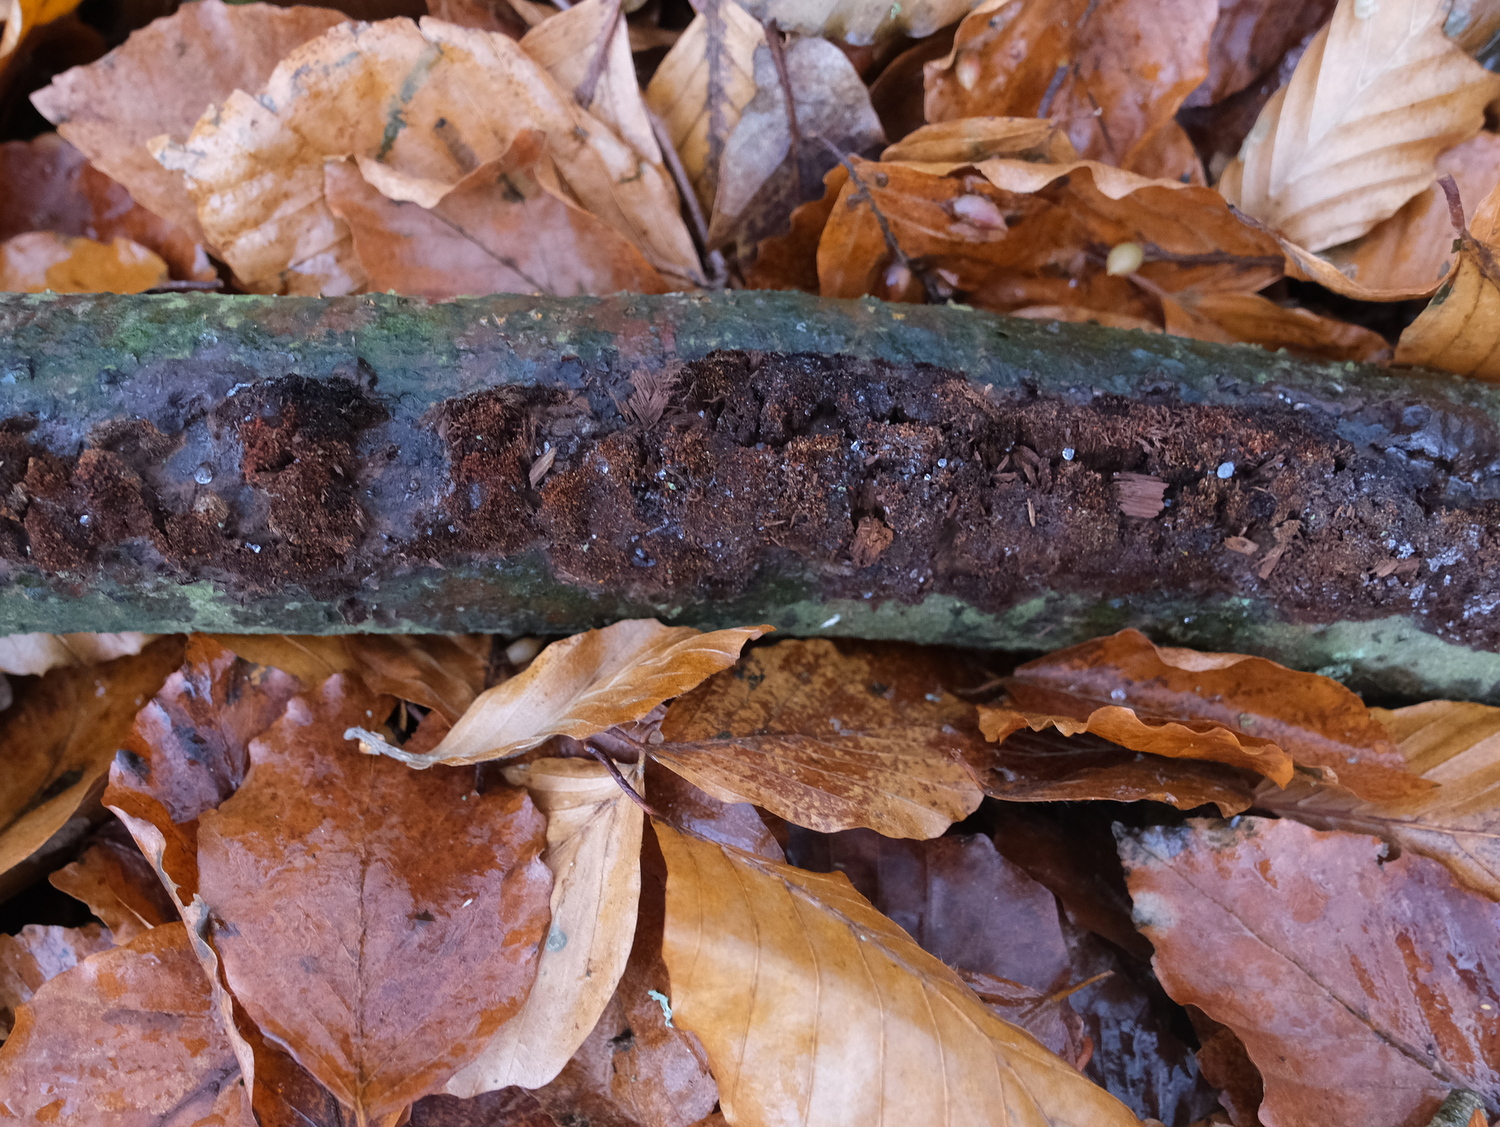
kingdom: Fungi
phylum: Ascomycota
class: Sordariomycetes
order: Hypocreales
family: Nectriaceae
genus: Cosmospora
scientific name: Cosmospora coccinea
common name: spejlpore-cinnobersvamp
